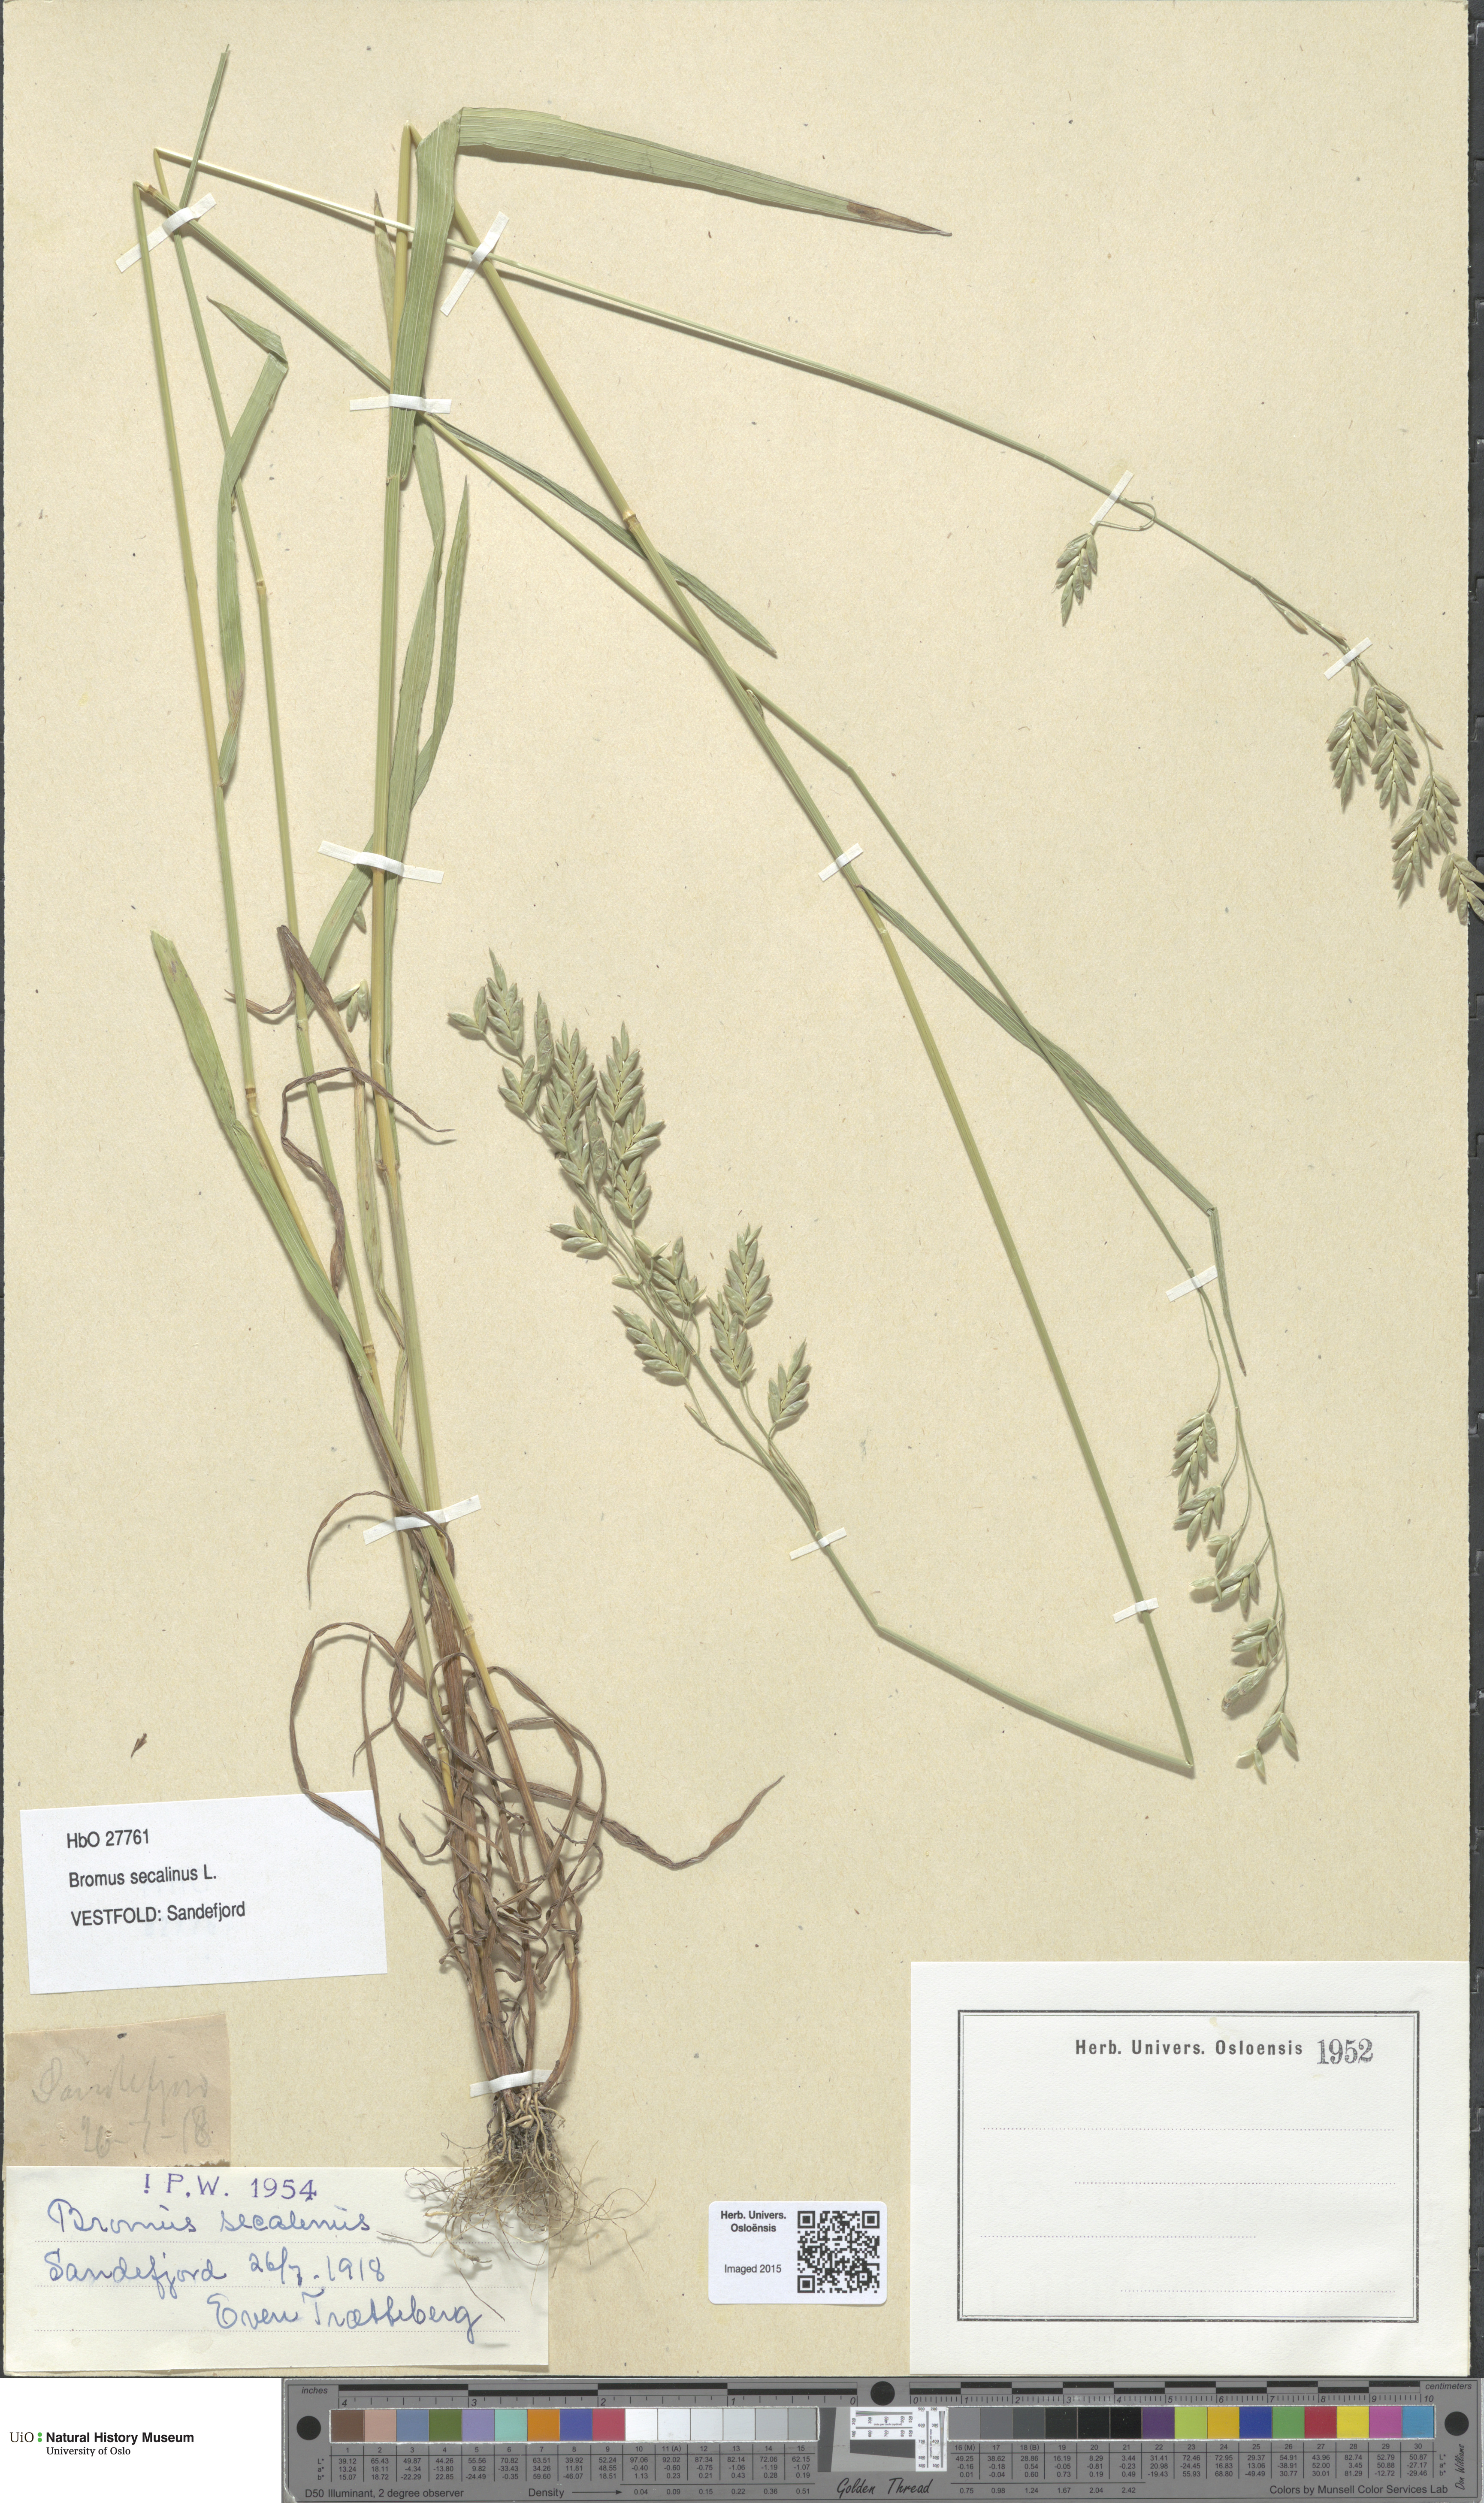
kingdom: Plantae
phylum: Tracheophyta
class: Liliopsida
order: Poales
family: Poaceae
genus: Bromus
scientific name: Bromus secalinus
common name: Rye brome
